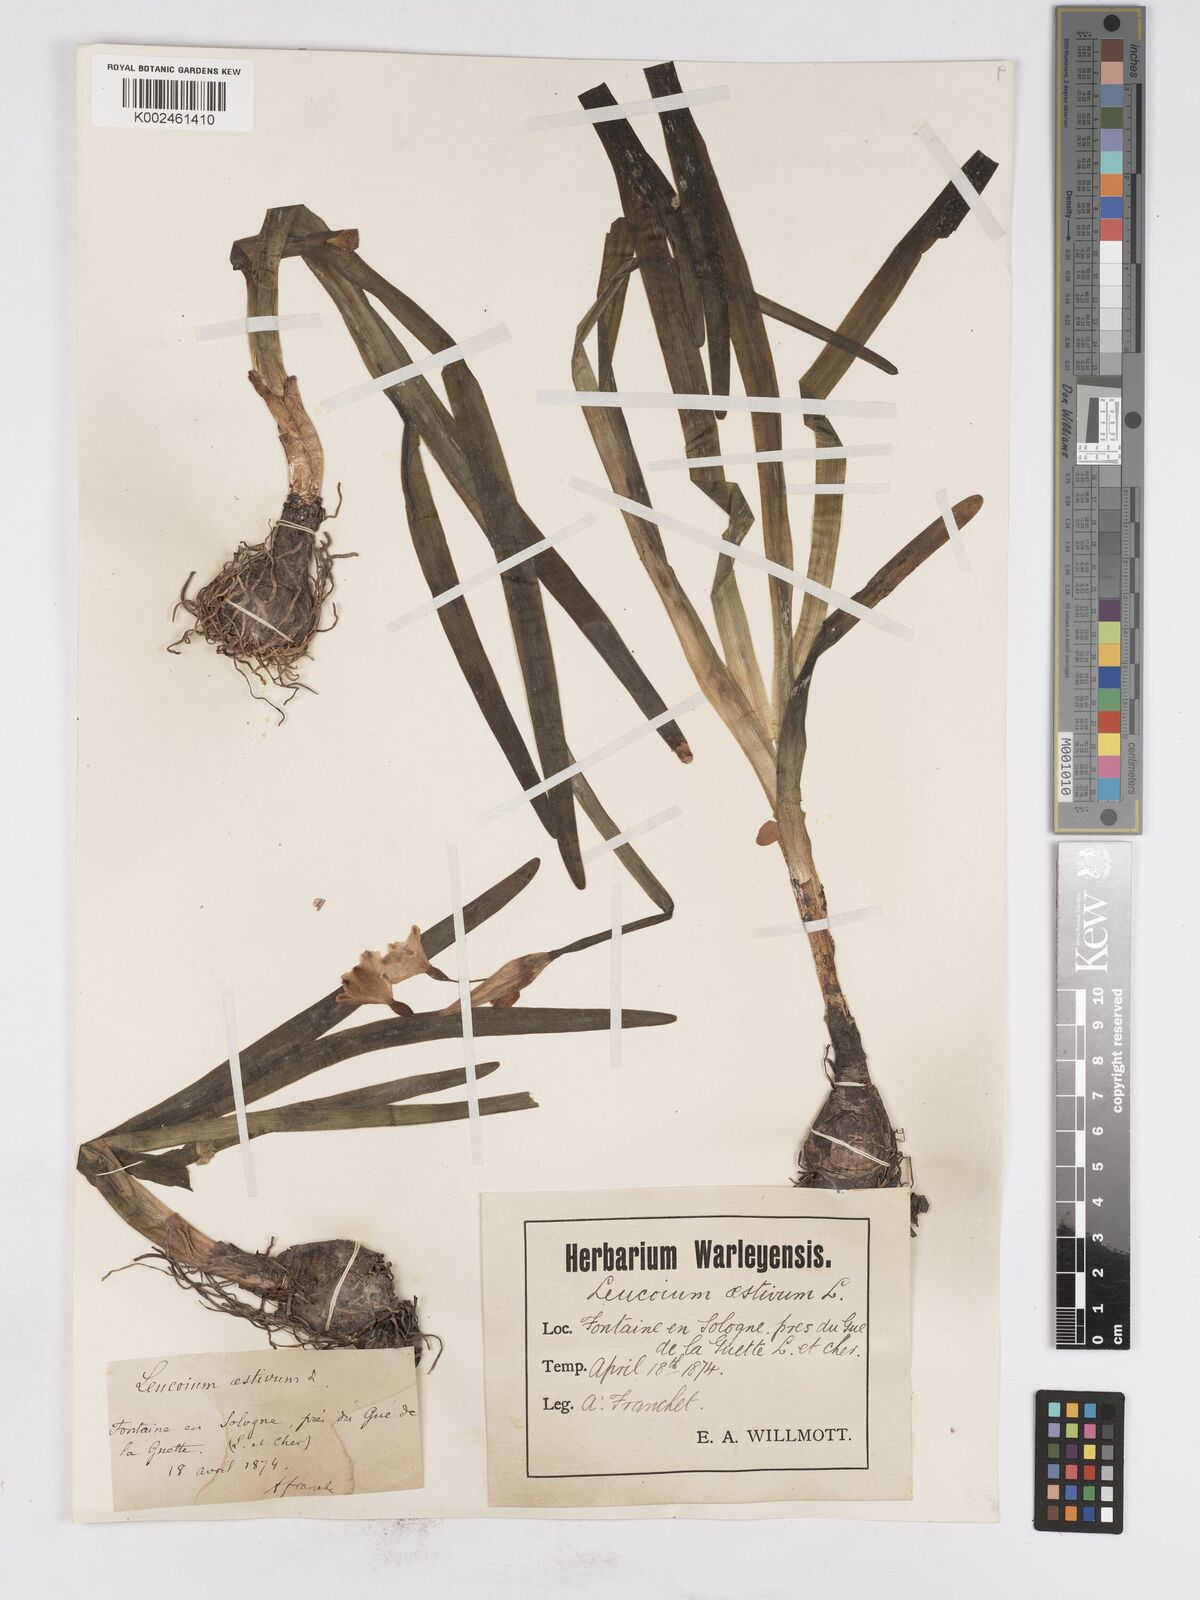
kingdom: Plantae
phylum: Tracheophyta
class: Liliopsida
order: Asparagales
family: Amaryllidaceae
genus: Leucojum
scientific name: Leucojum aestivum
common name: Summer snowflake
